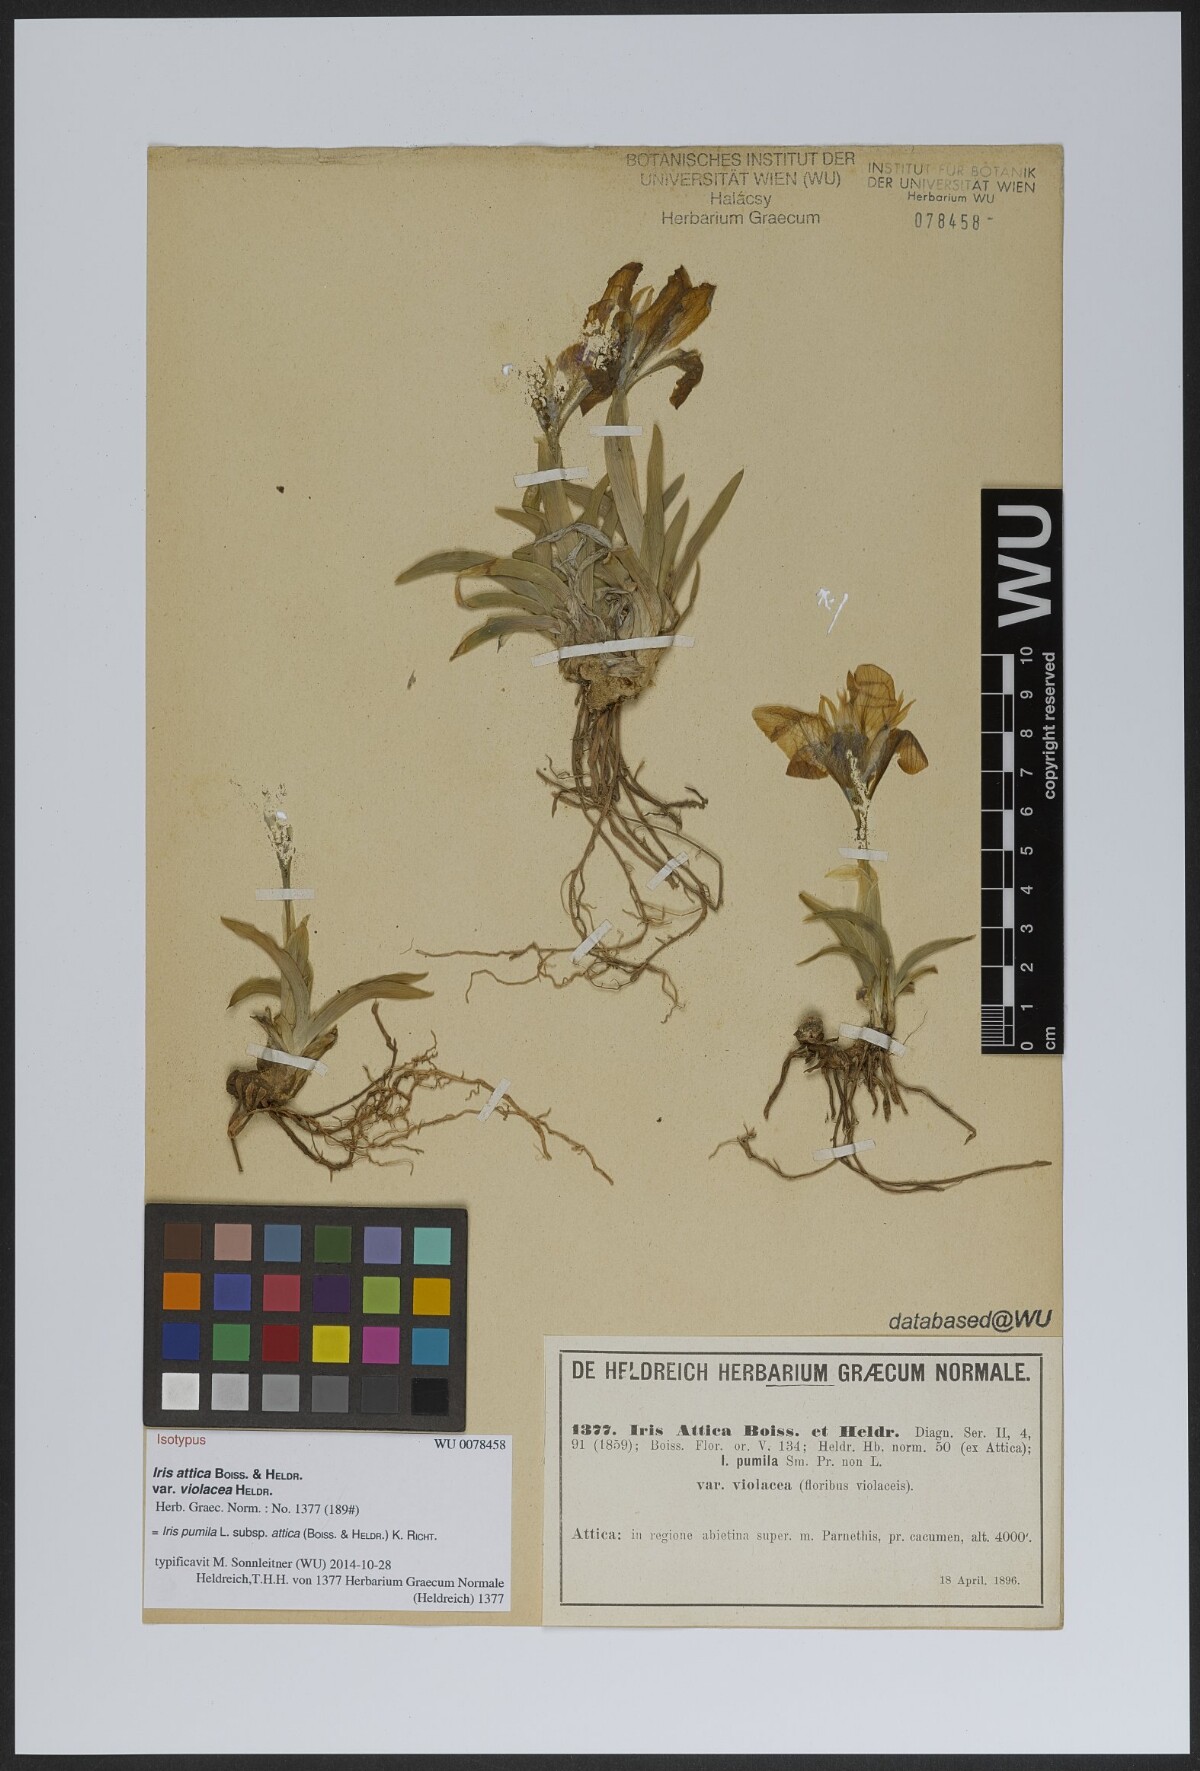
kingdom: Plantae
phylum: Tracheophyta
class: Liliopsida
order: Asparagales
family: Iridaceae
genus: Iris
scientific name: Iris pumila
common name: Dwarf iris
